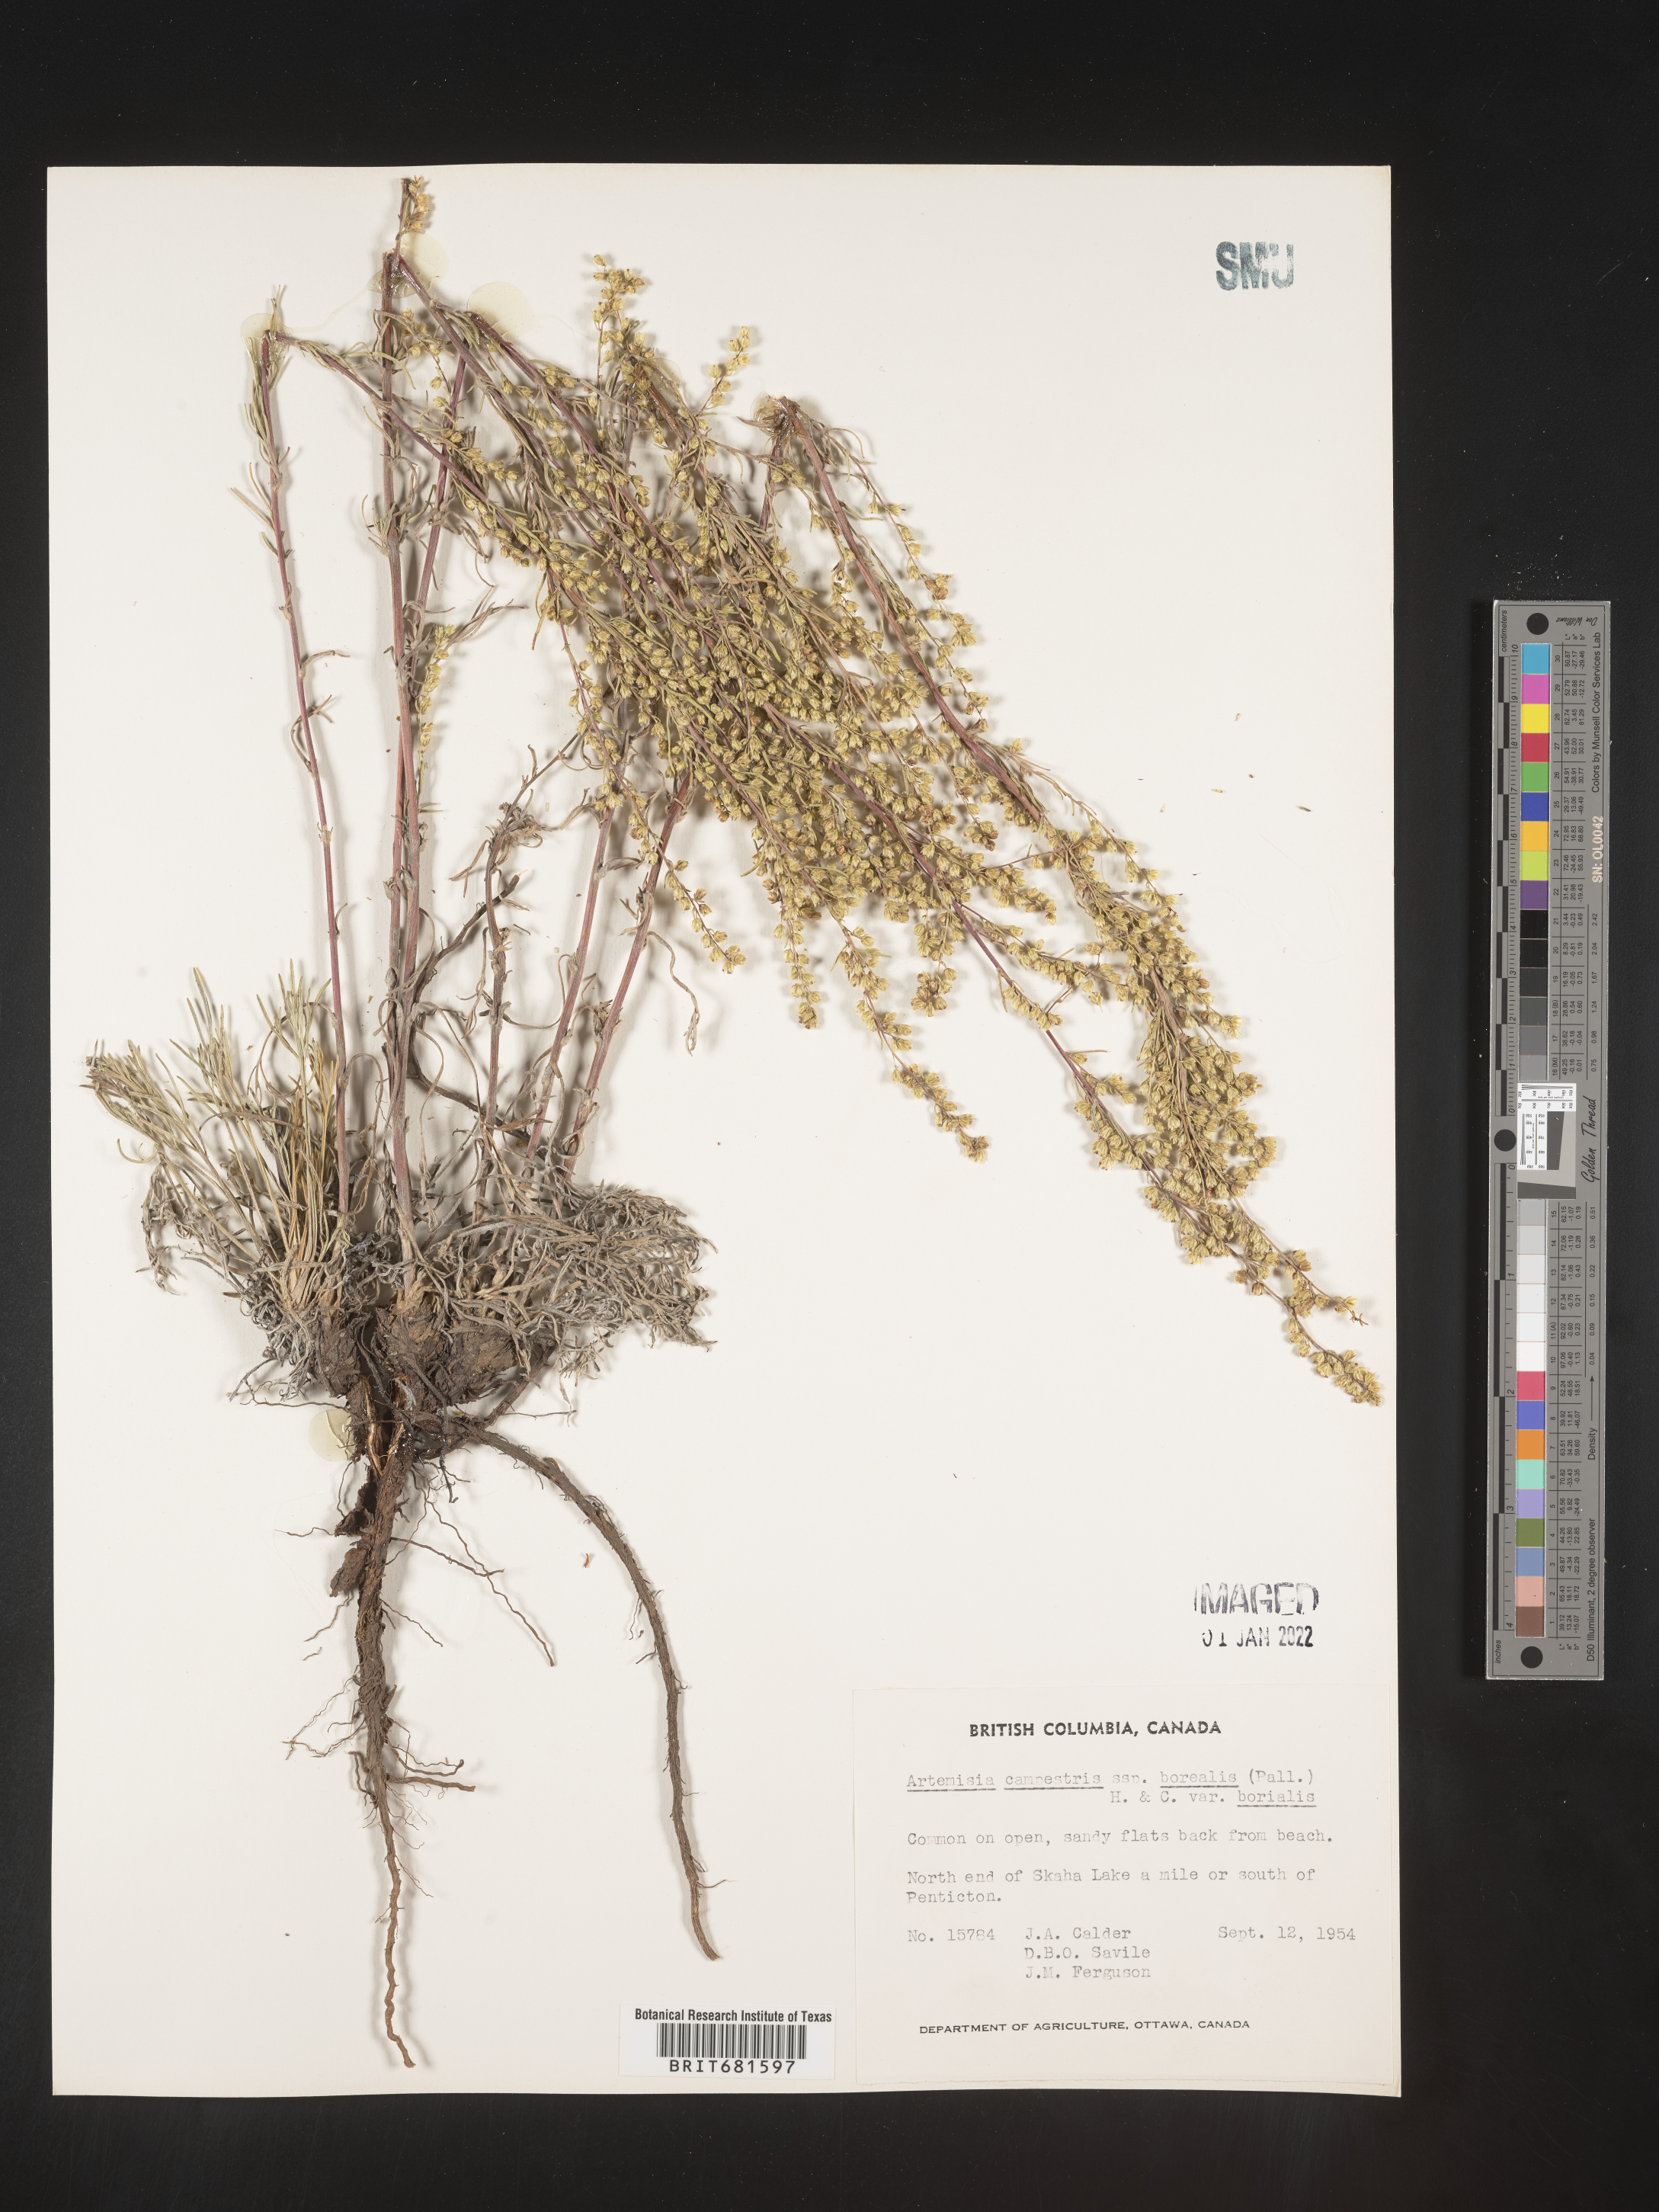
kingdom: Plantae
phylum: Tracheophyta
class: Magnoliopsida
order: Asterales
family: Asteraceae
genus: Artemisia
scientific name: Artemisia
